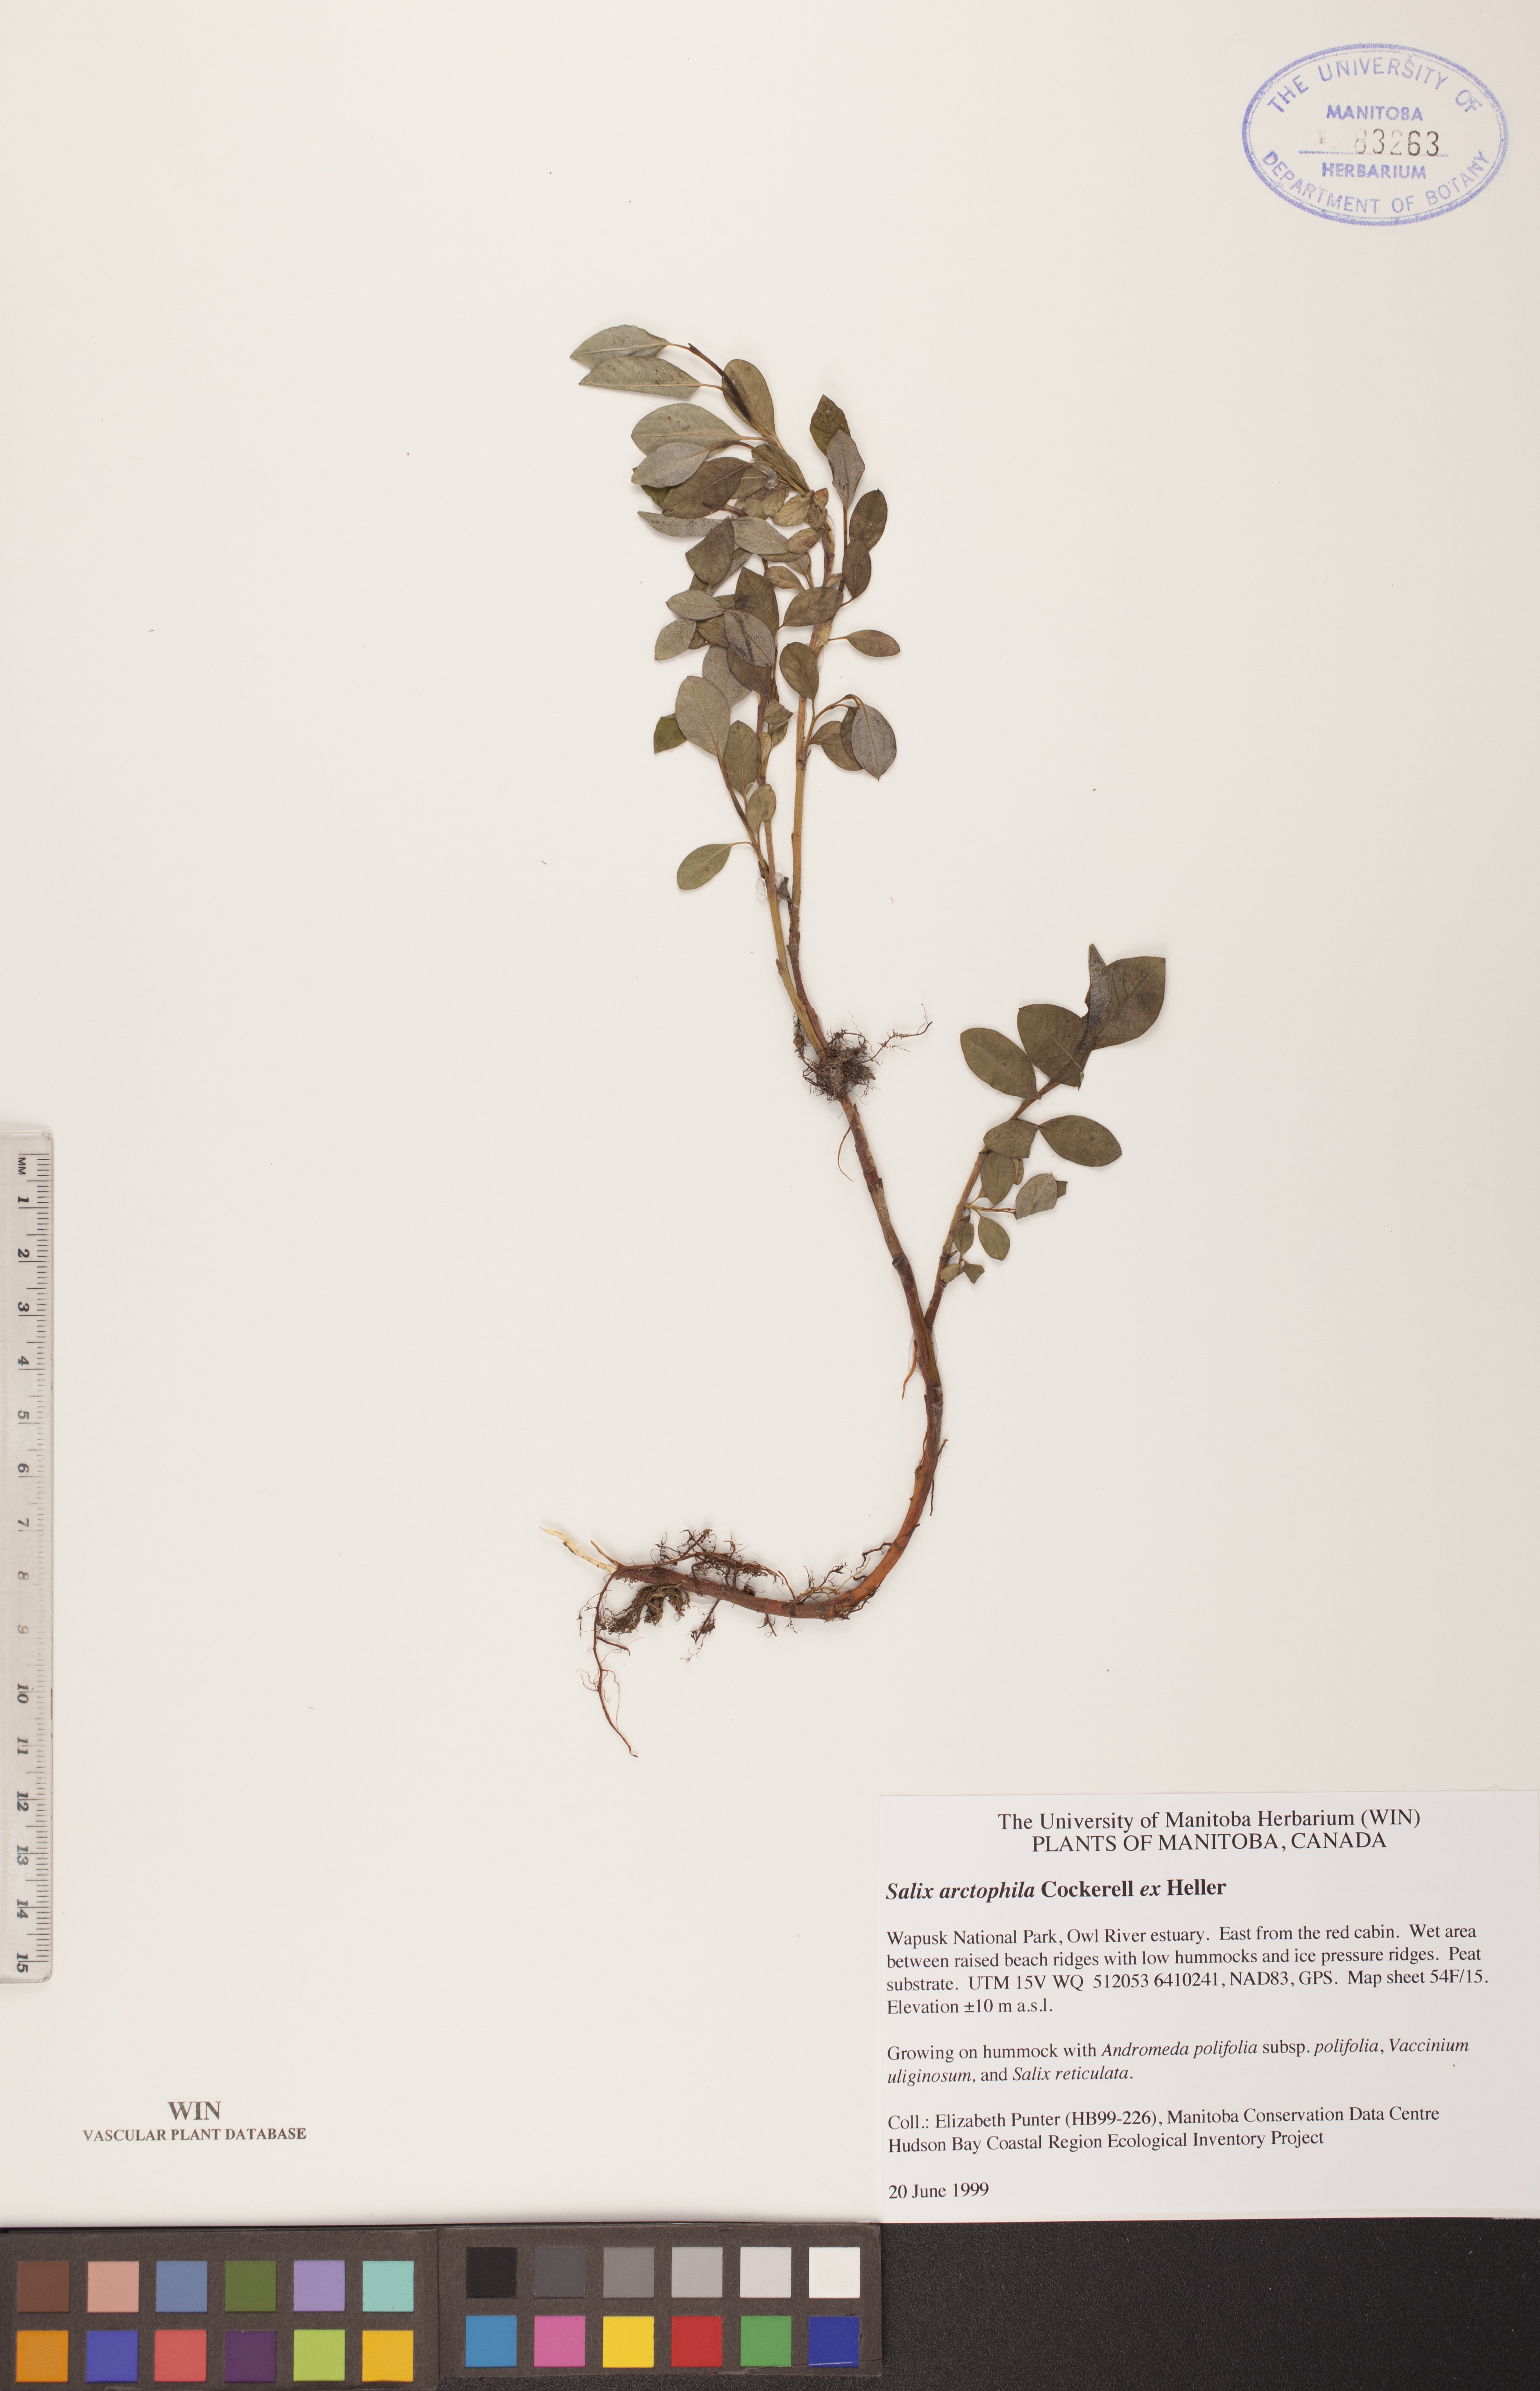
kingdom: Plantae
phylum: Tracheophyta
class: Magnoliopsida
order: Malpighiales
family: Salicaceae
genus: Salix
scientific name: Salix arctophila
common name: Greenland willow
